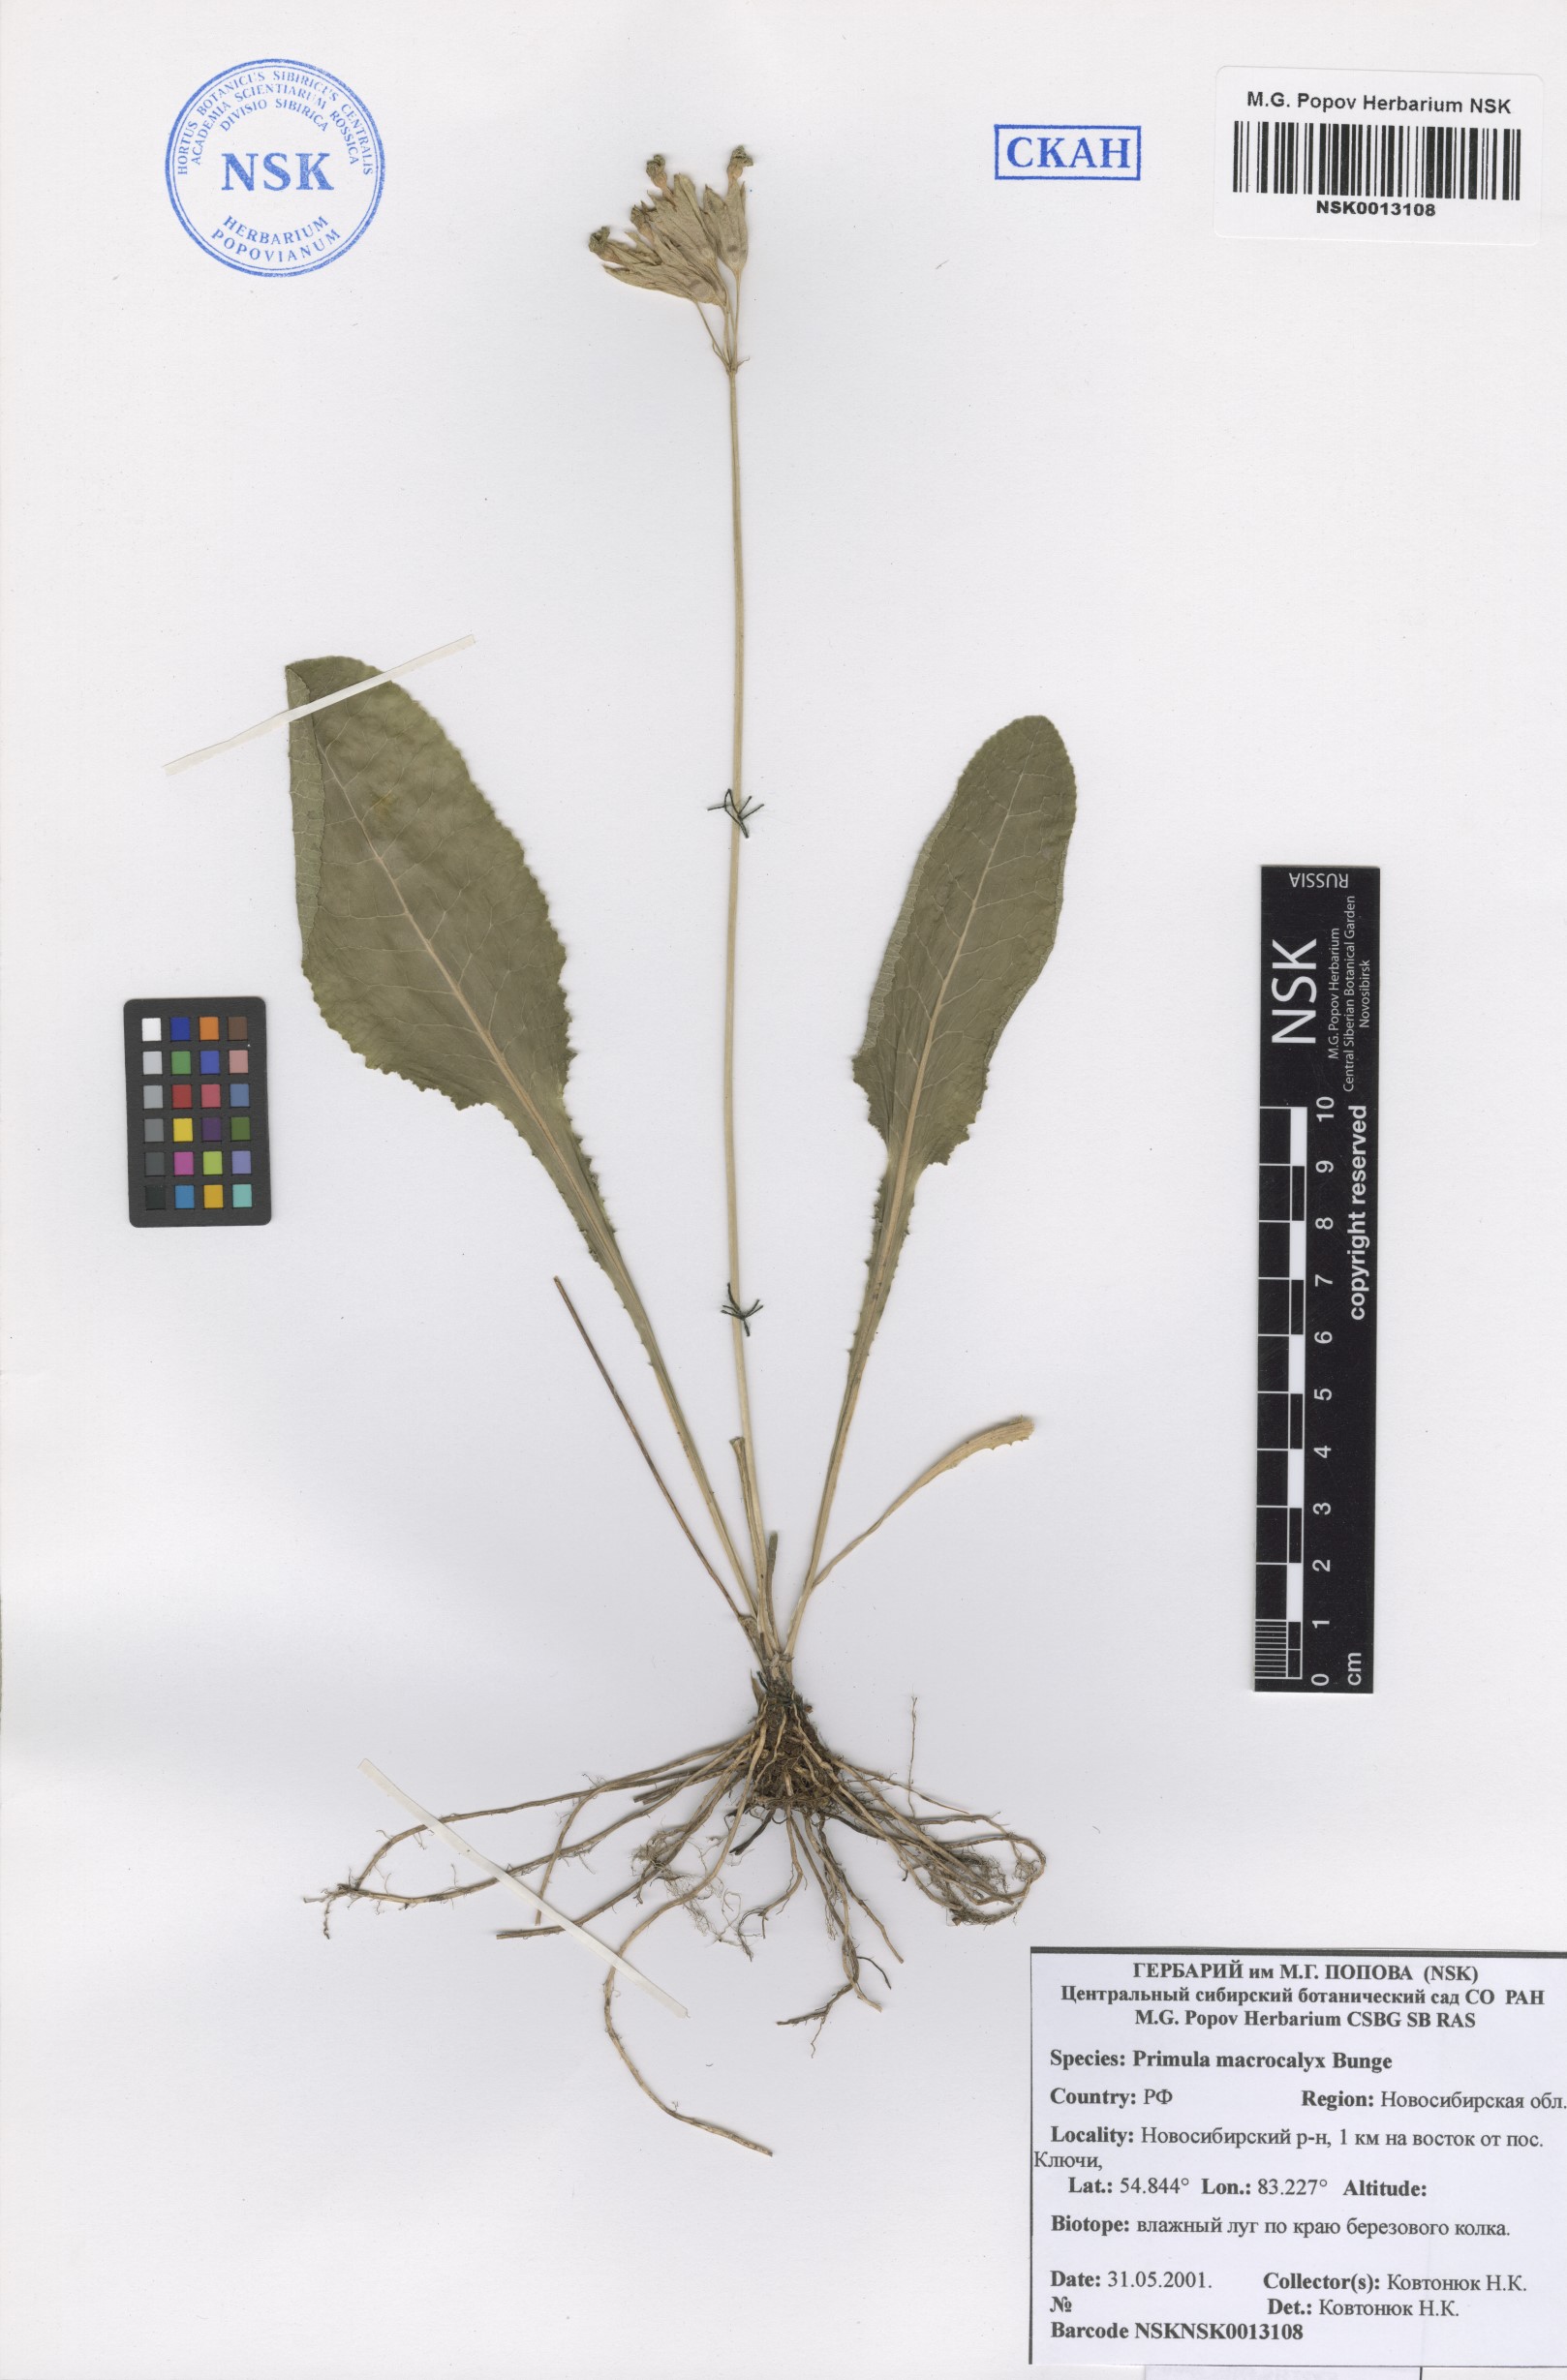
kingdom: Plantae
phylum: Tracheophyta
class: Magnoliopsida
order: Ericales
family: Primulaceae
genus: Primula
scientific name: Primula veris
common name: Cowslip
